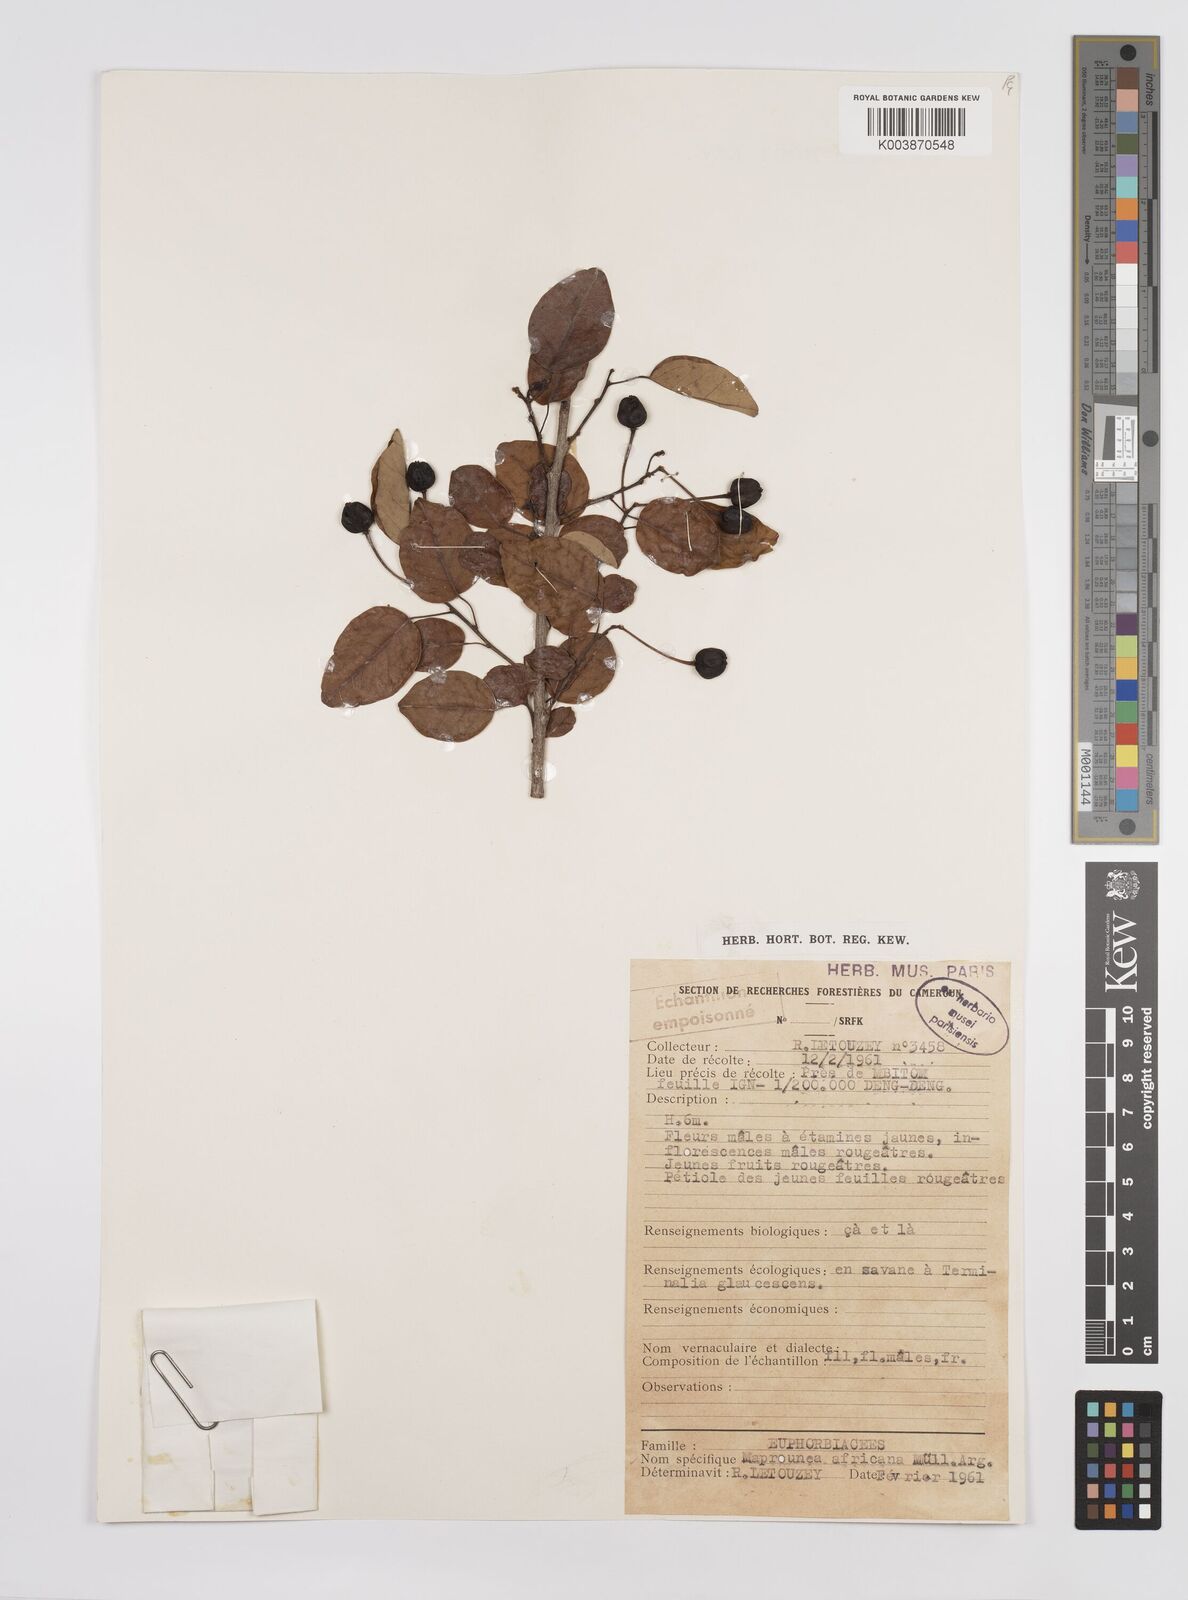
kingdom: Plantae
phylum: Tracheophyta
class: Magnoliopsida
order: Malpighiales
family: Euphorbiaceae
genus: Maprounea
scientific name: Maprounea africana
